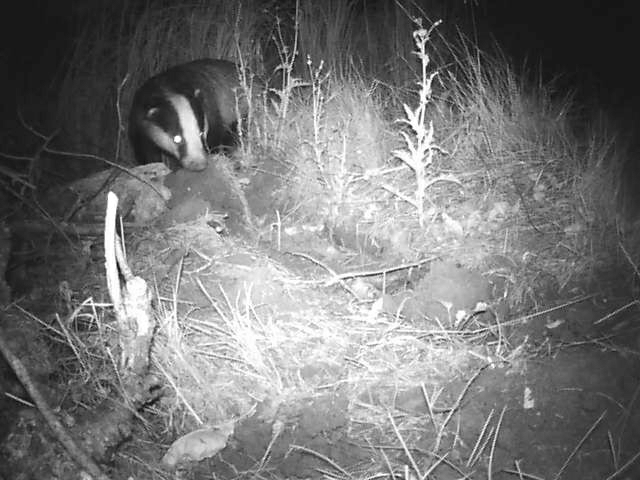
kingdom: Animalia
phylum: Chordata
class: Mammalia
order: Carnivora
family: Mustelidae
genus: Meles
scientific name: Meles meles
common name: Grævling
